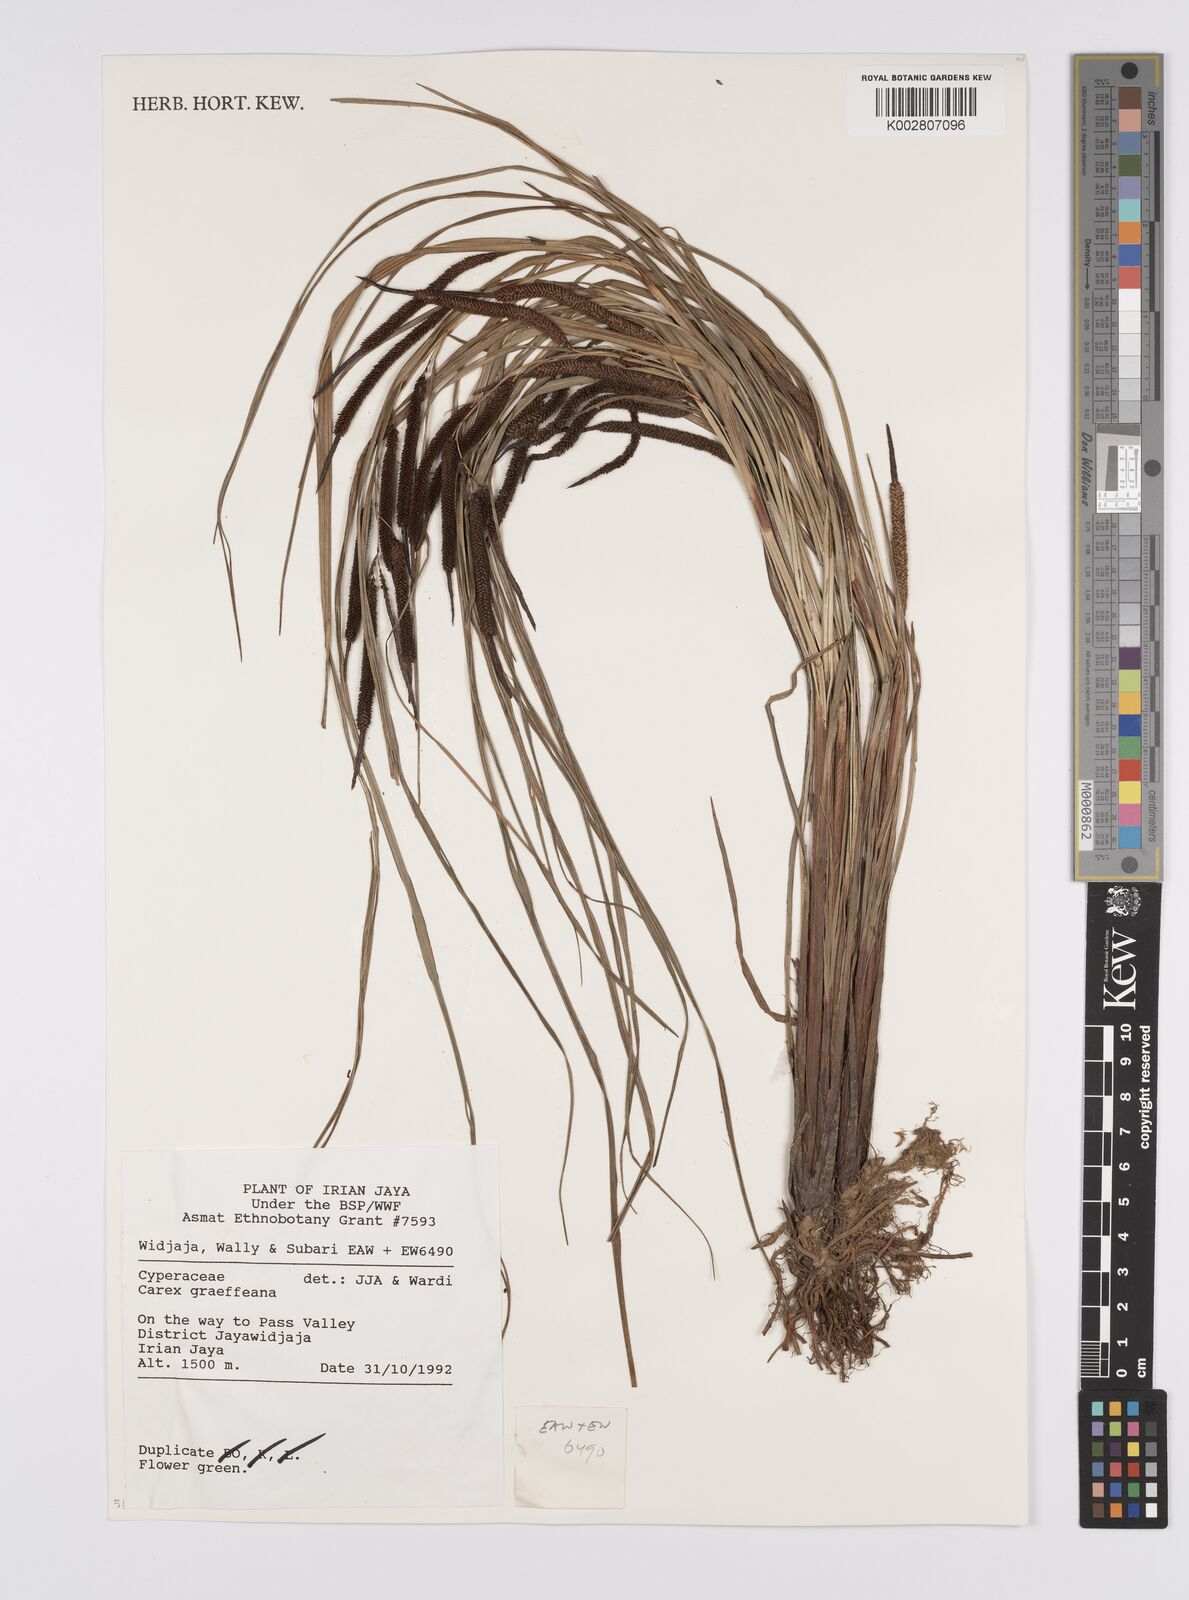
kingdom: Plantae
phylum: Tracheophyta
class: Liliopsida
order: Poales
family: Cyperaceae
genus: Carex
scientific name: Carex graeffeana
